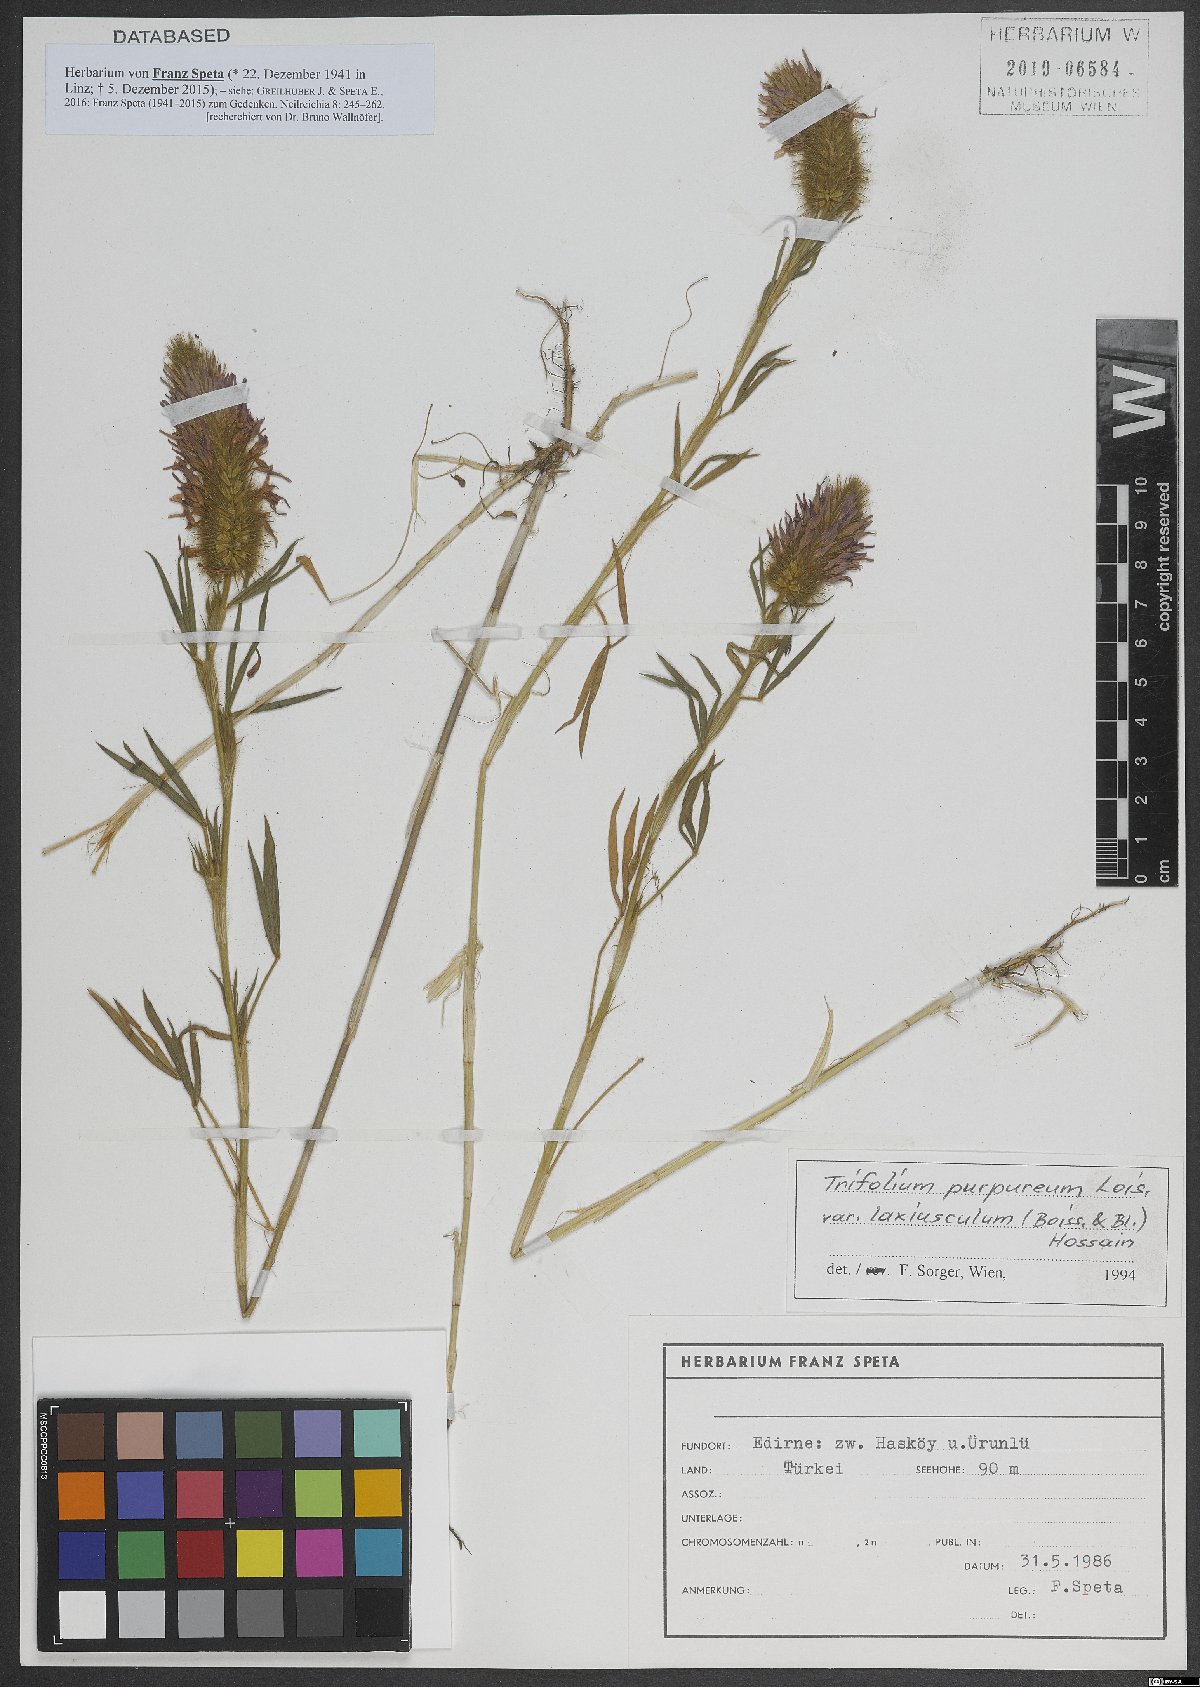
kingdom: Plantae
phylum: Tracheophyta
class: Magnoliopsida
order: Fabales
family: Fabaceae
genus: Trifolium
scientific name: Trifolium purpureum
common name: Purple clover
